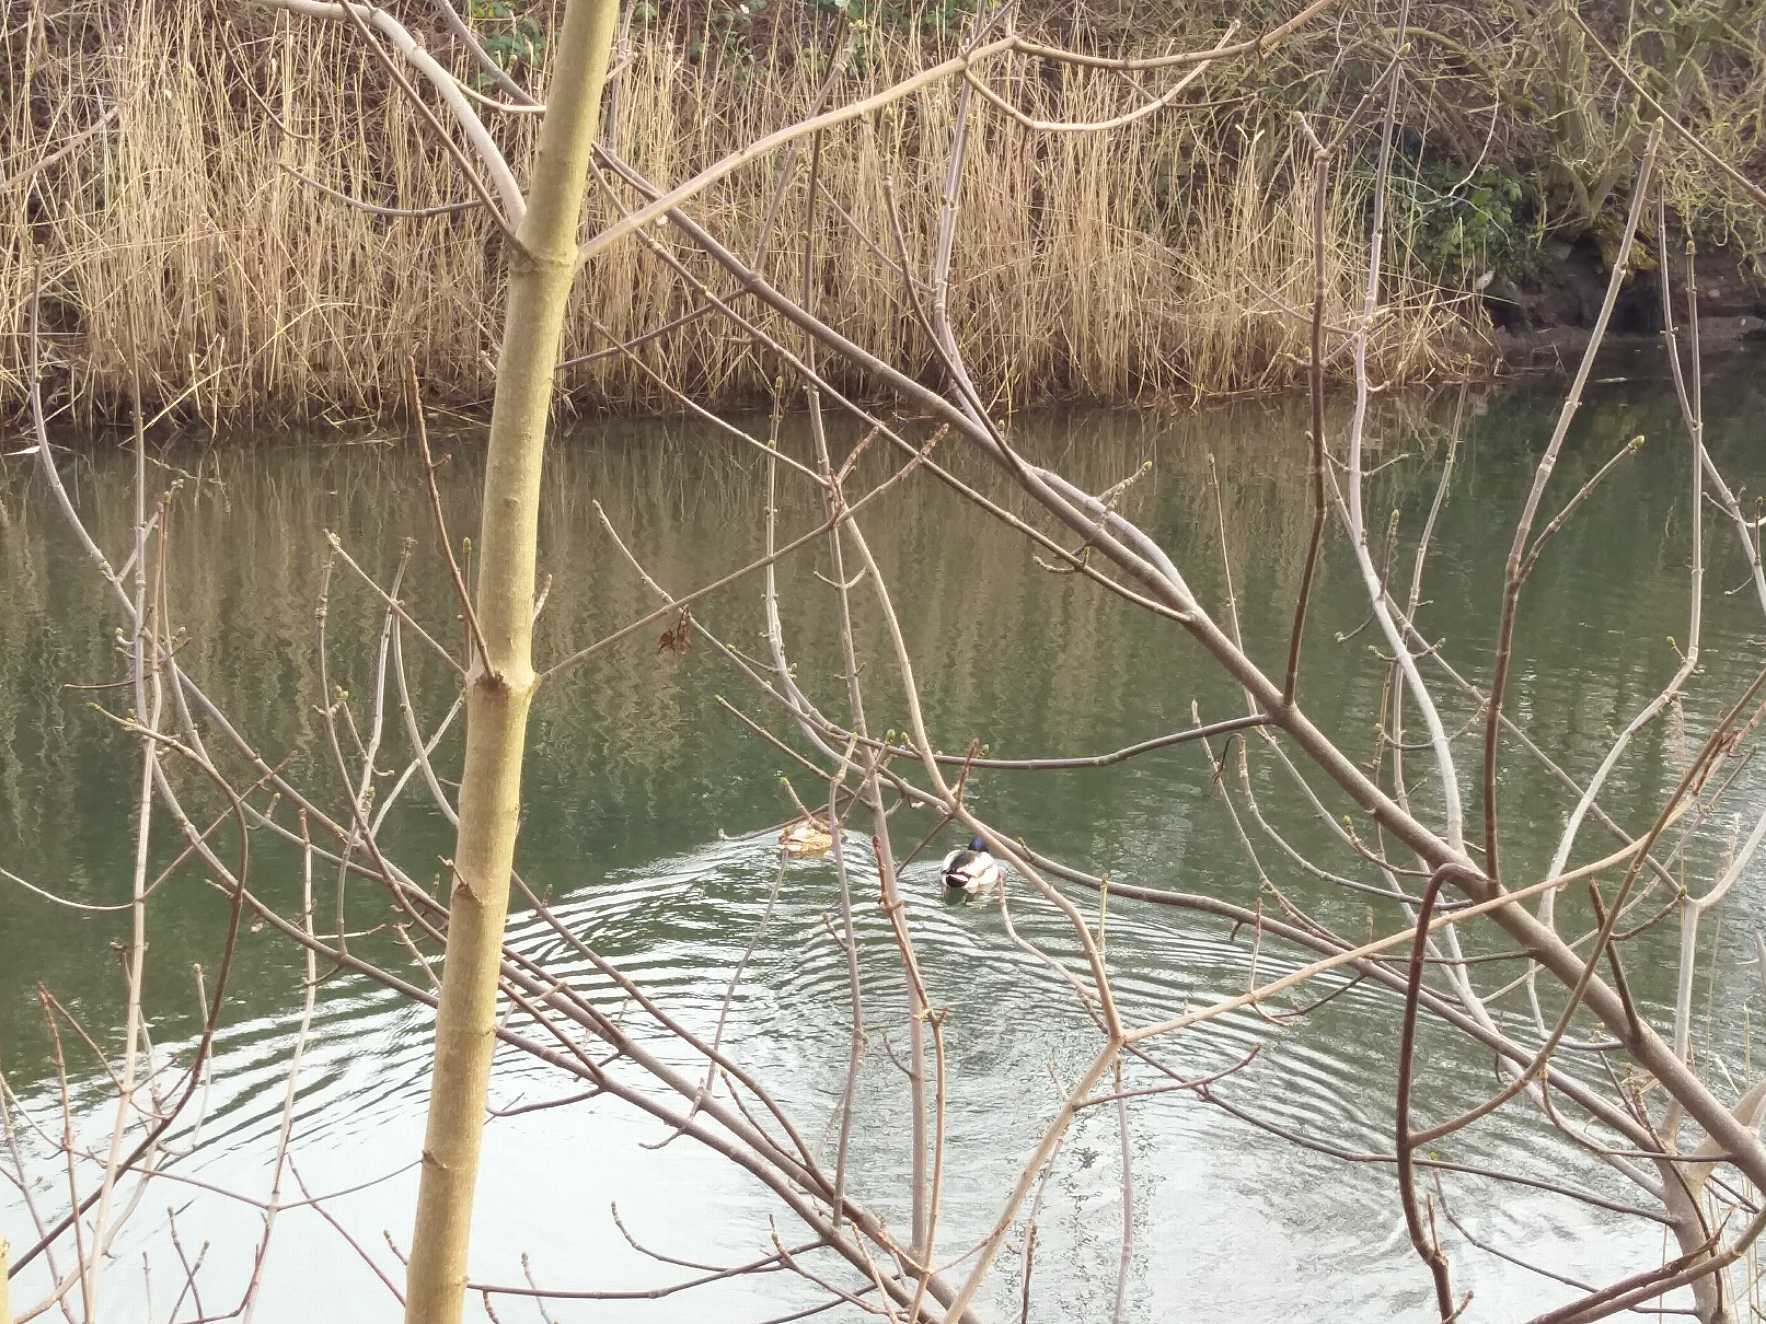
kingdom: Animalia
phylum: Chordata
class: Aves
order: Anseriformes
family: Anatidae
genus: Anas
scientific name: Anas platyrhynchos
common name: Gråand
